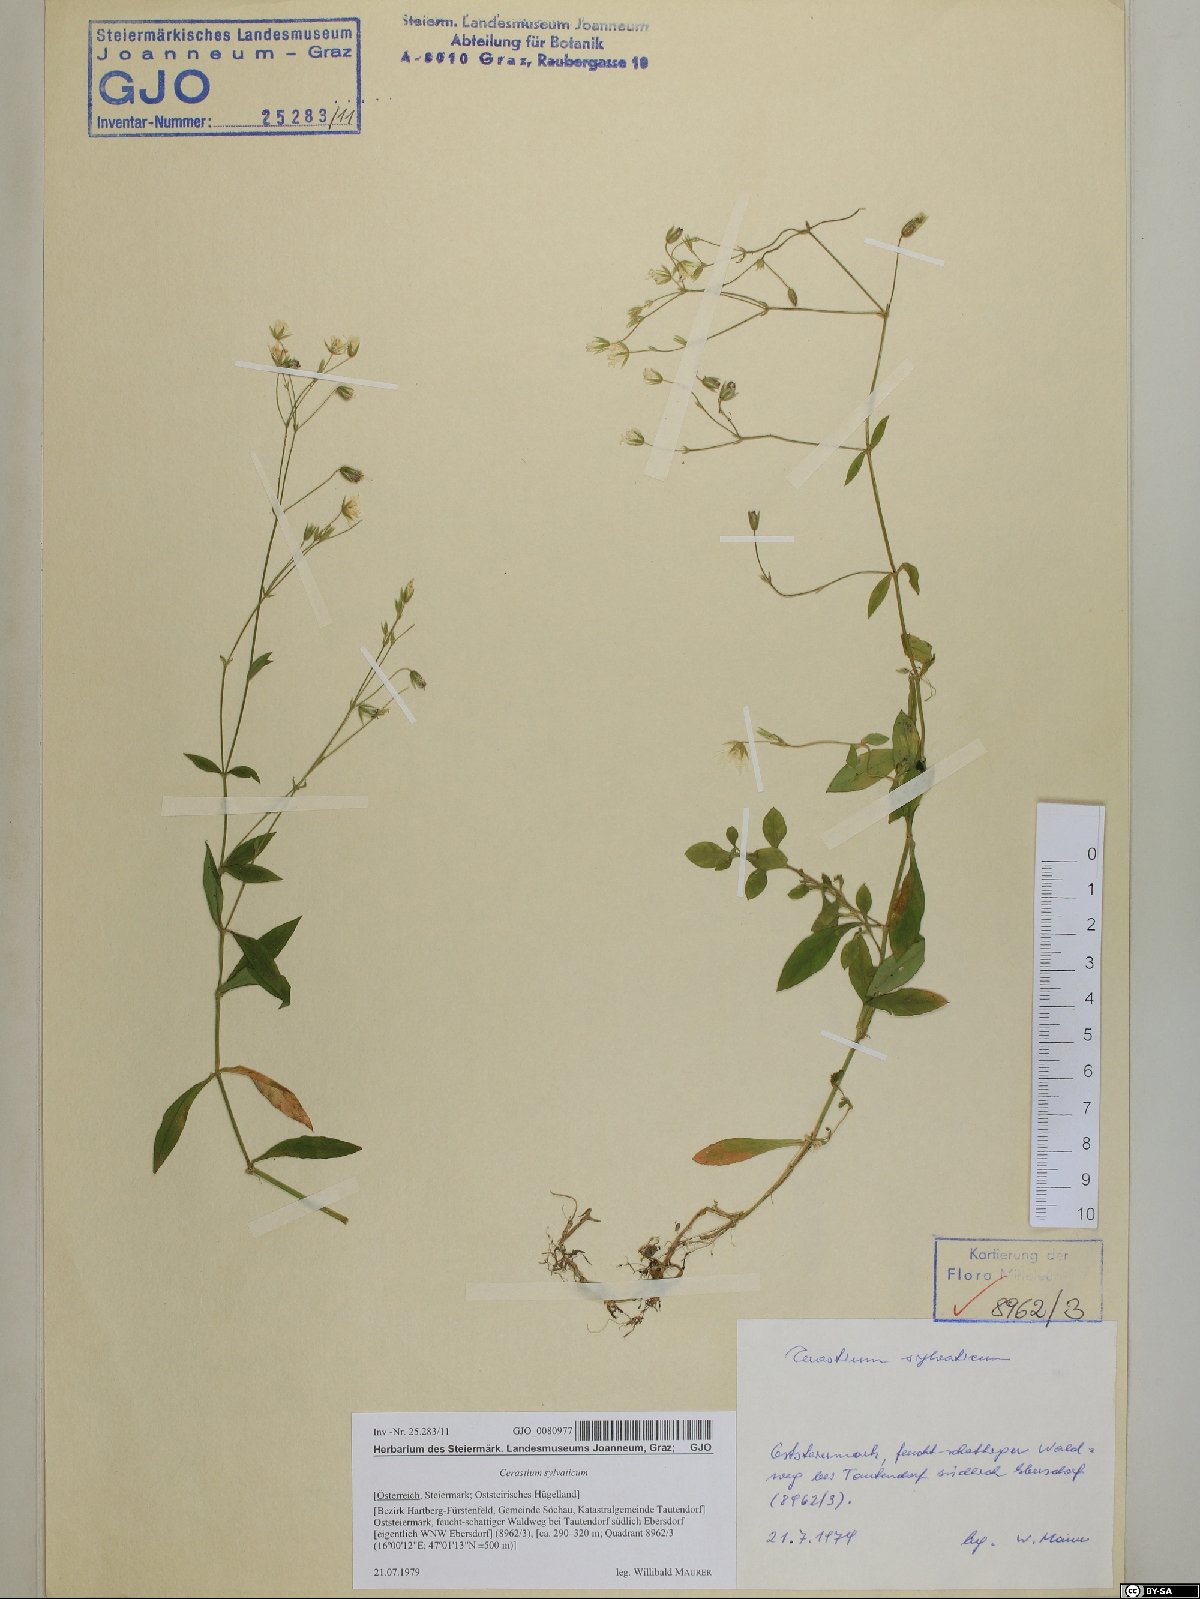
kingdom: Plantae
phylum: Tracheophyta
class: Magnoliopsida
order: Caryophyllales
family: Caryophyllaceae
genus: Cerastium
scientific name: Cerastium sylvaticum
